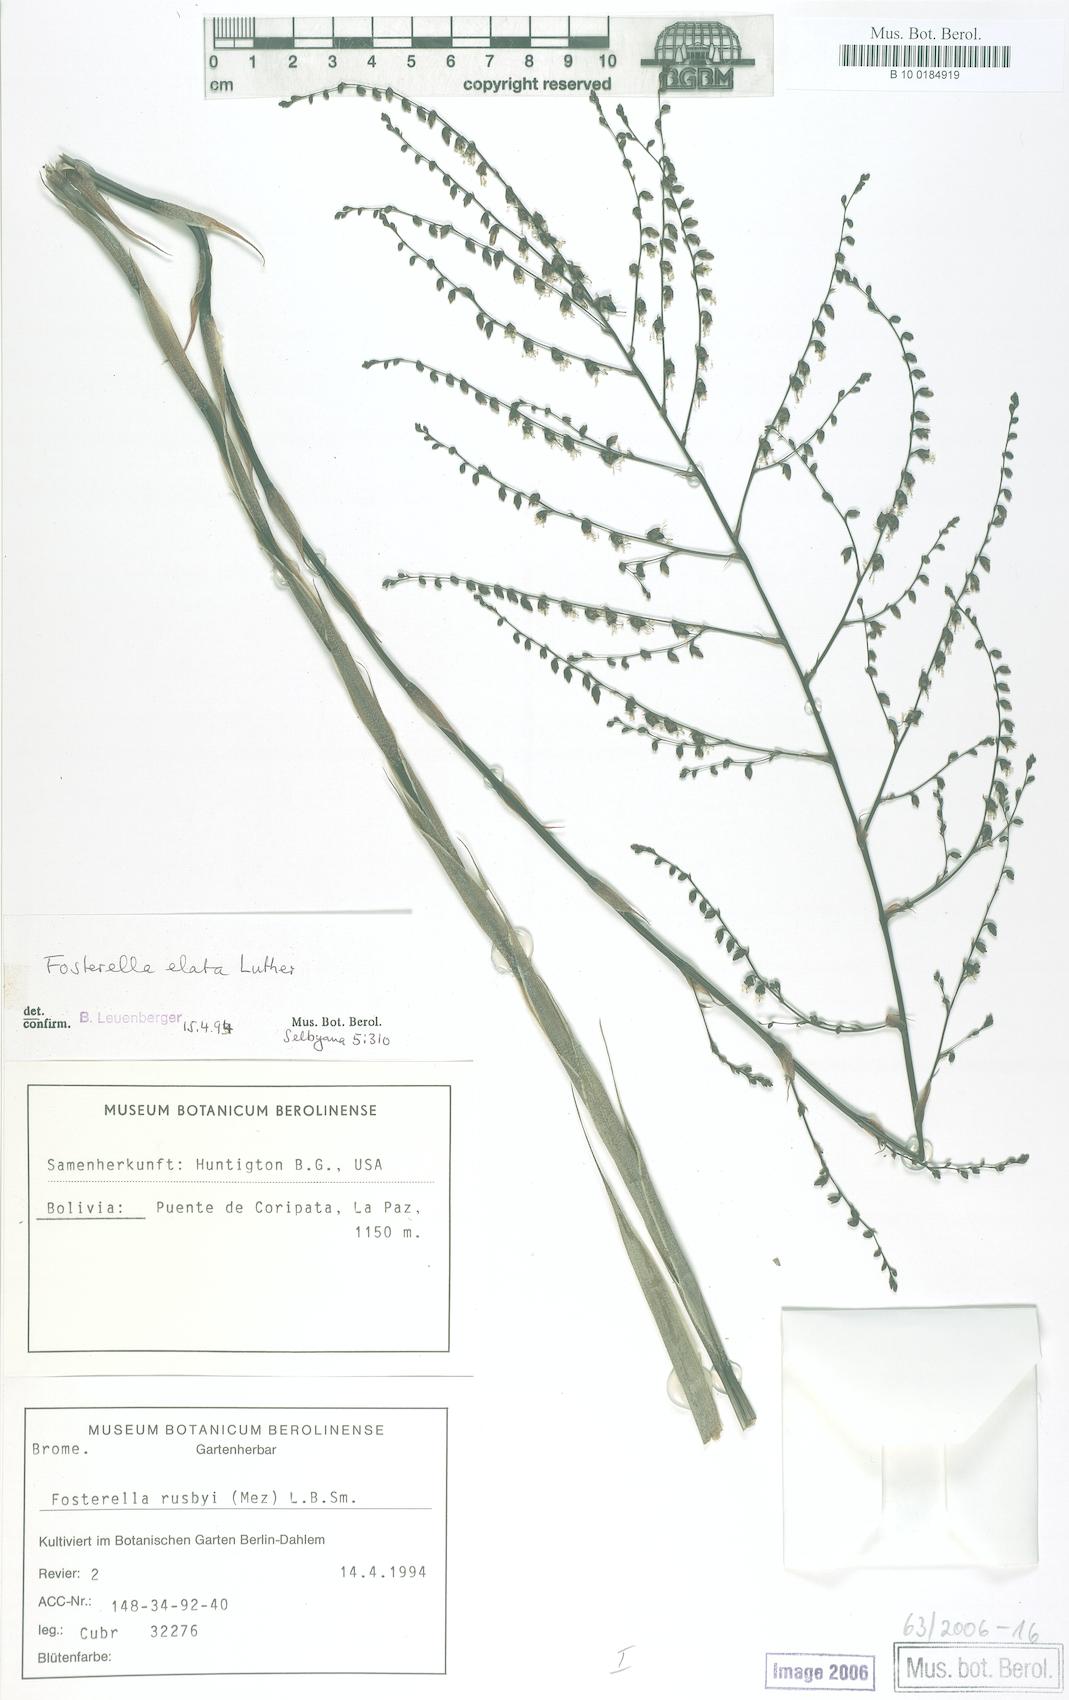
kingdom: Plantae
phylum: Tracheophyta
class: Liliopsida
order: Poales
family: Bromeliaceae
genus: Fosterella
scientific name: Fosterella rusbyi
